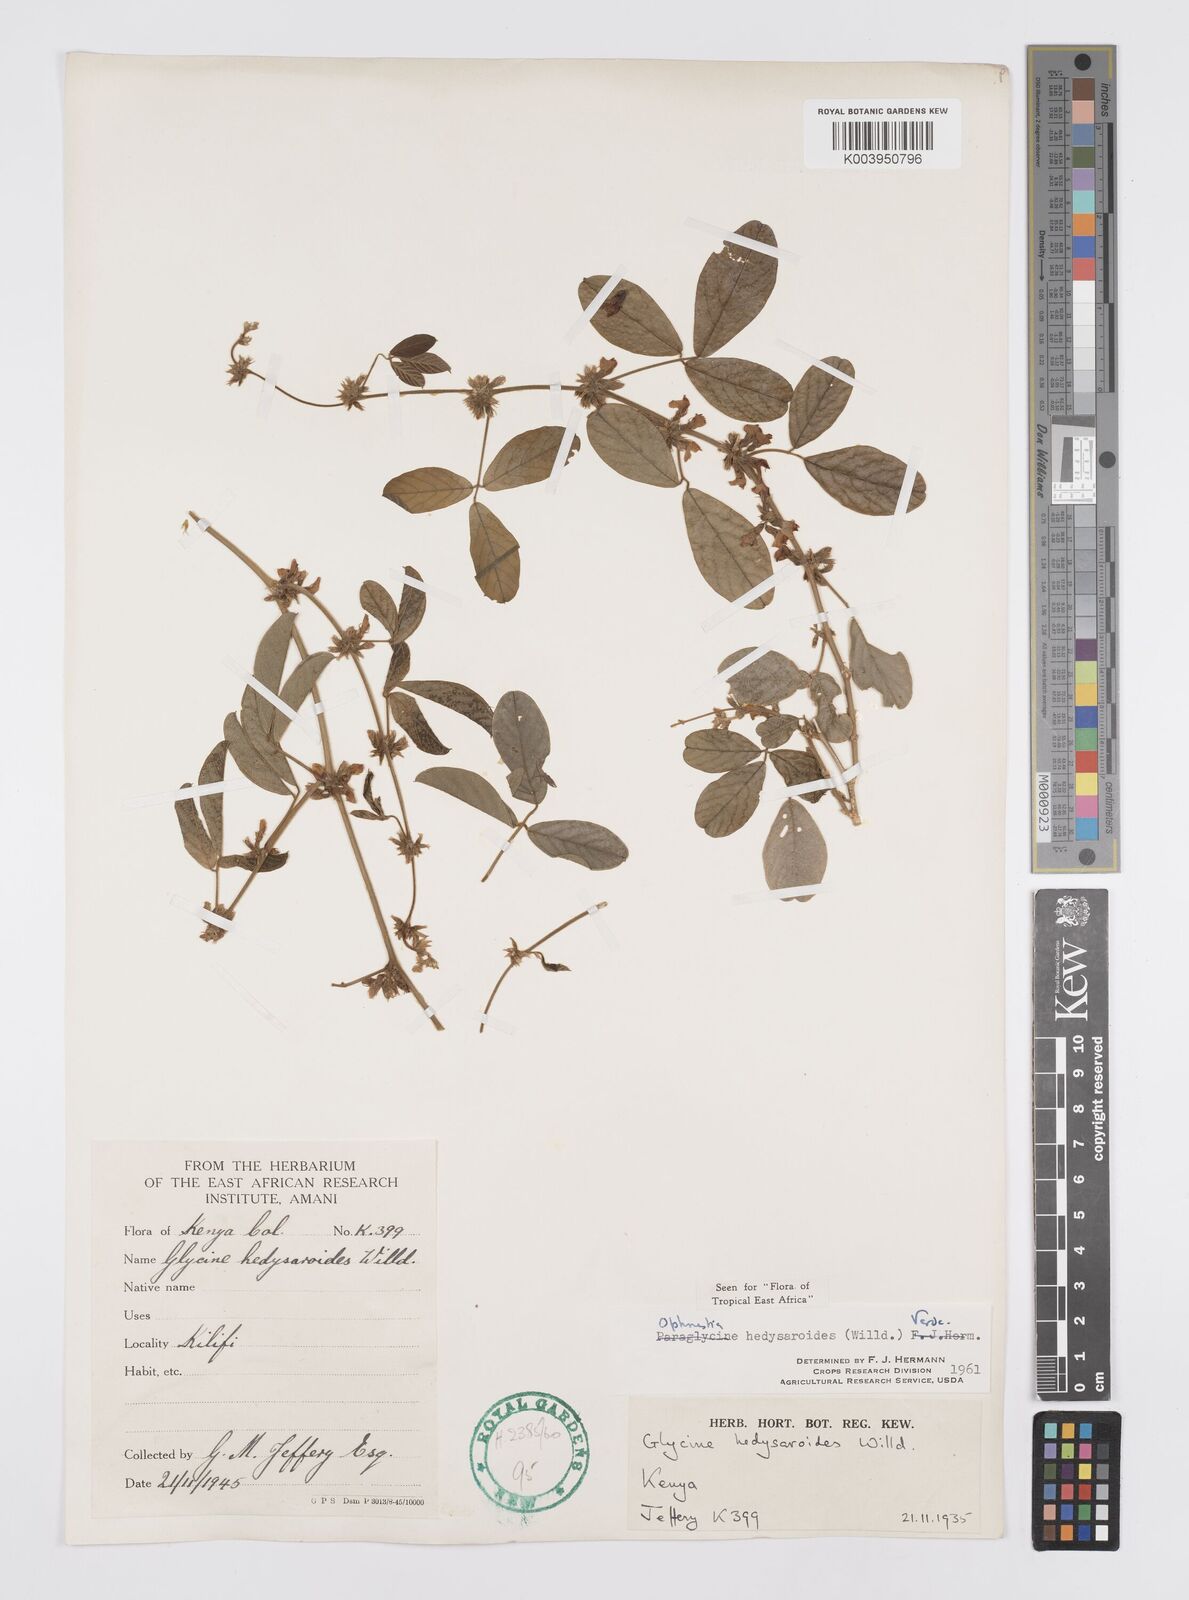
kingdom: Plantae
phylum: Tracheophyta
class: Magnoliopsida
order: Fabales
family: Fabaceae
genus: Ophrestia
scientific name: Ophrestia hedysaroides
